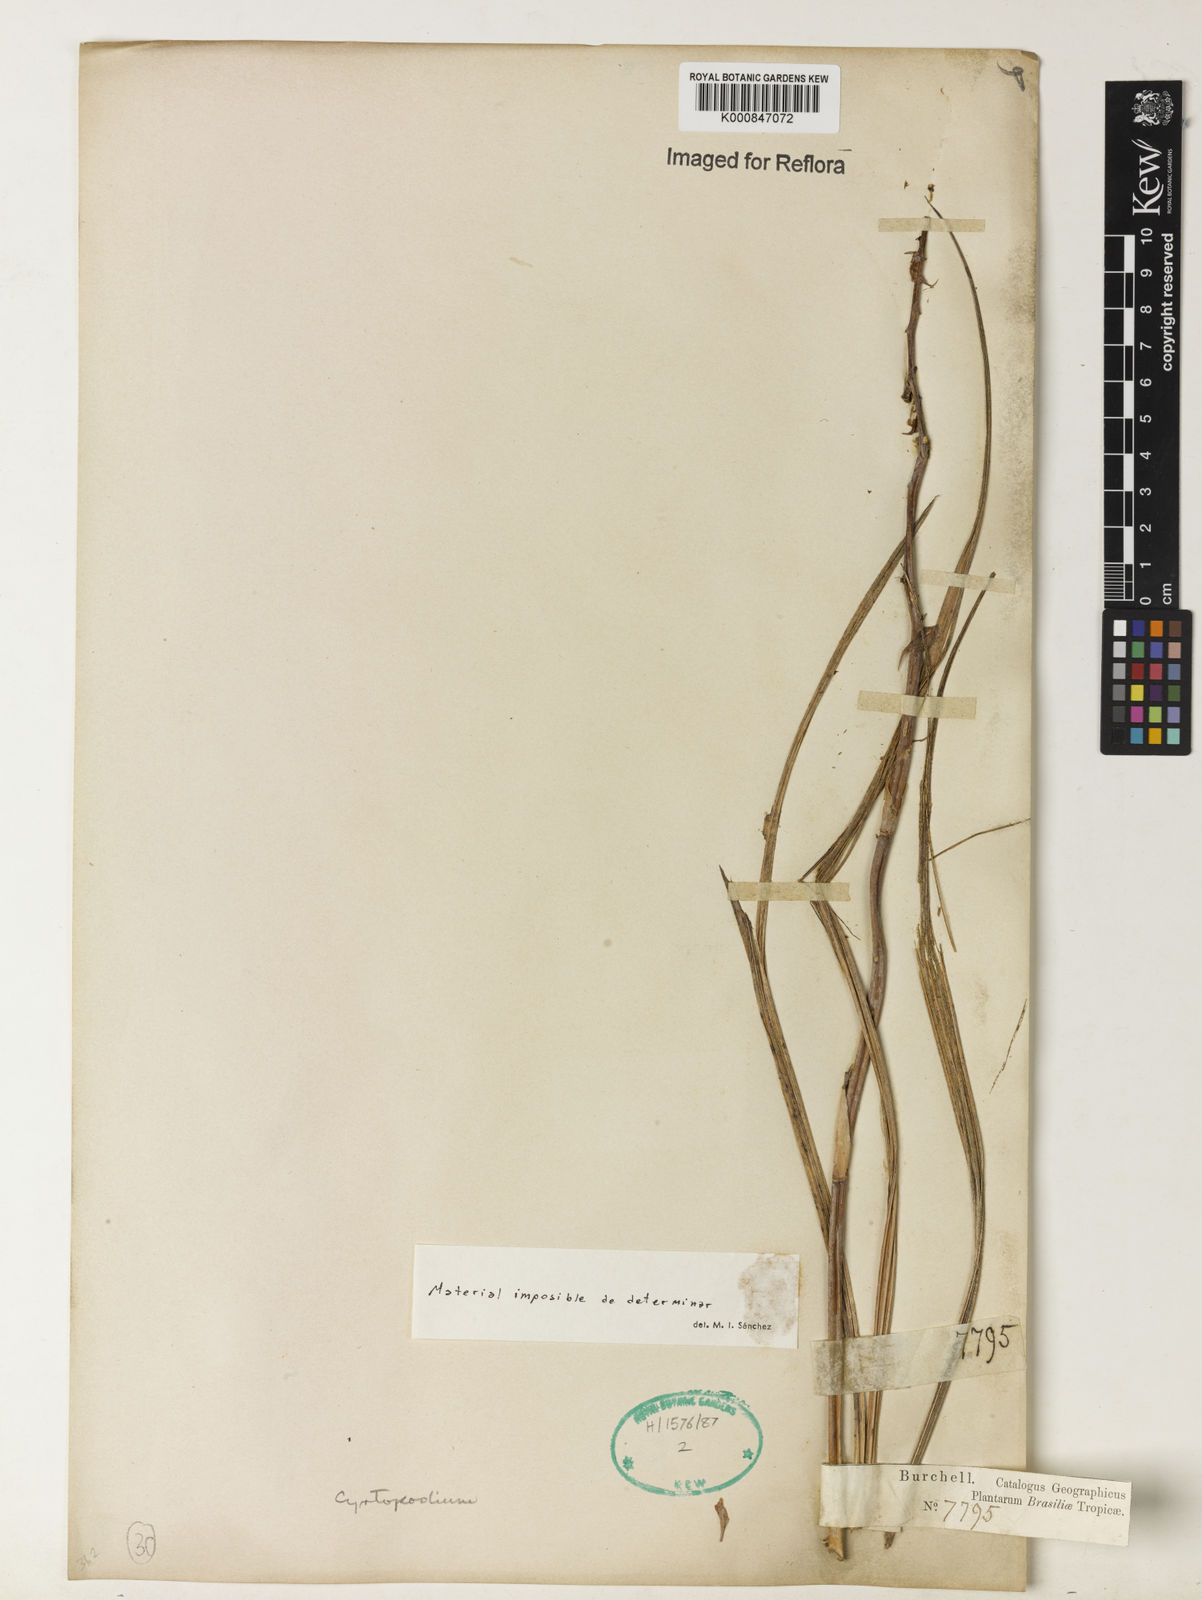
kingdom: Plantae
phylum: Tracheophyta
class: Liliopsida
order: Asparagales
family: Orchidaceae
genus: Cyrtopodium
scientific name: Cyrtopodium
